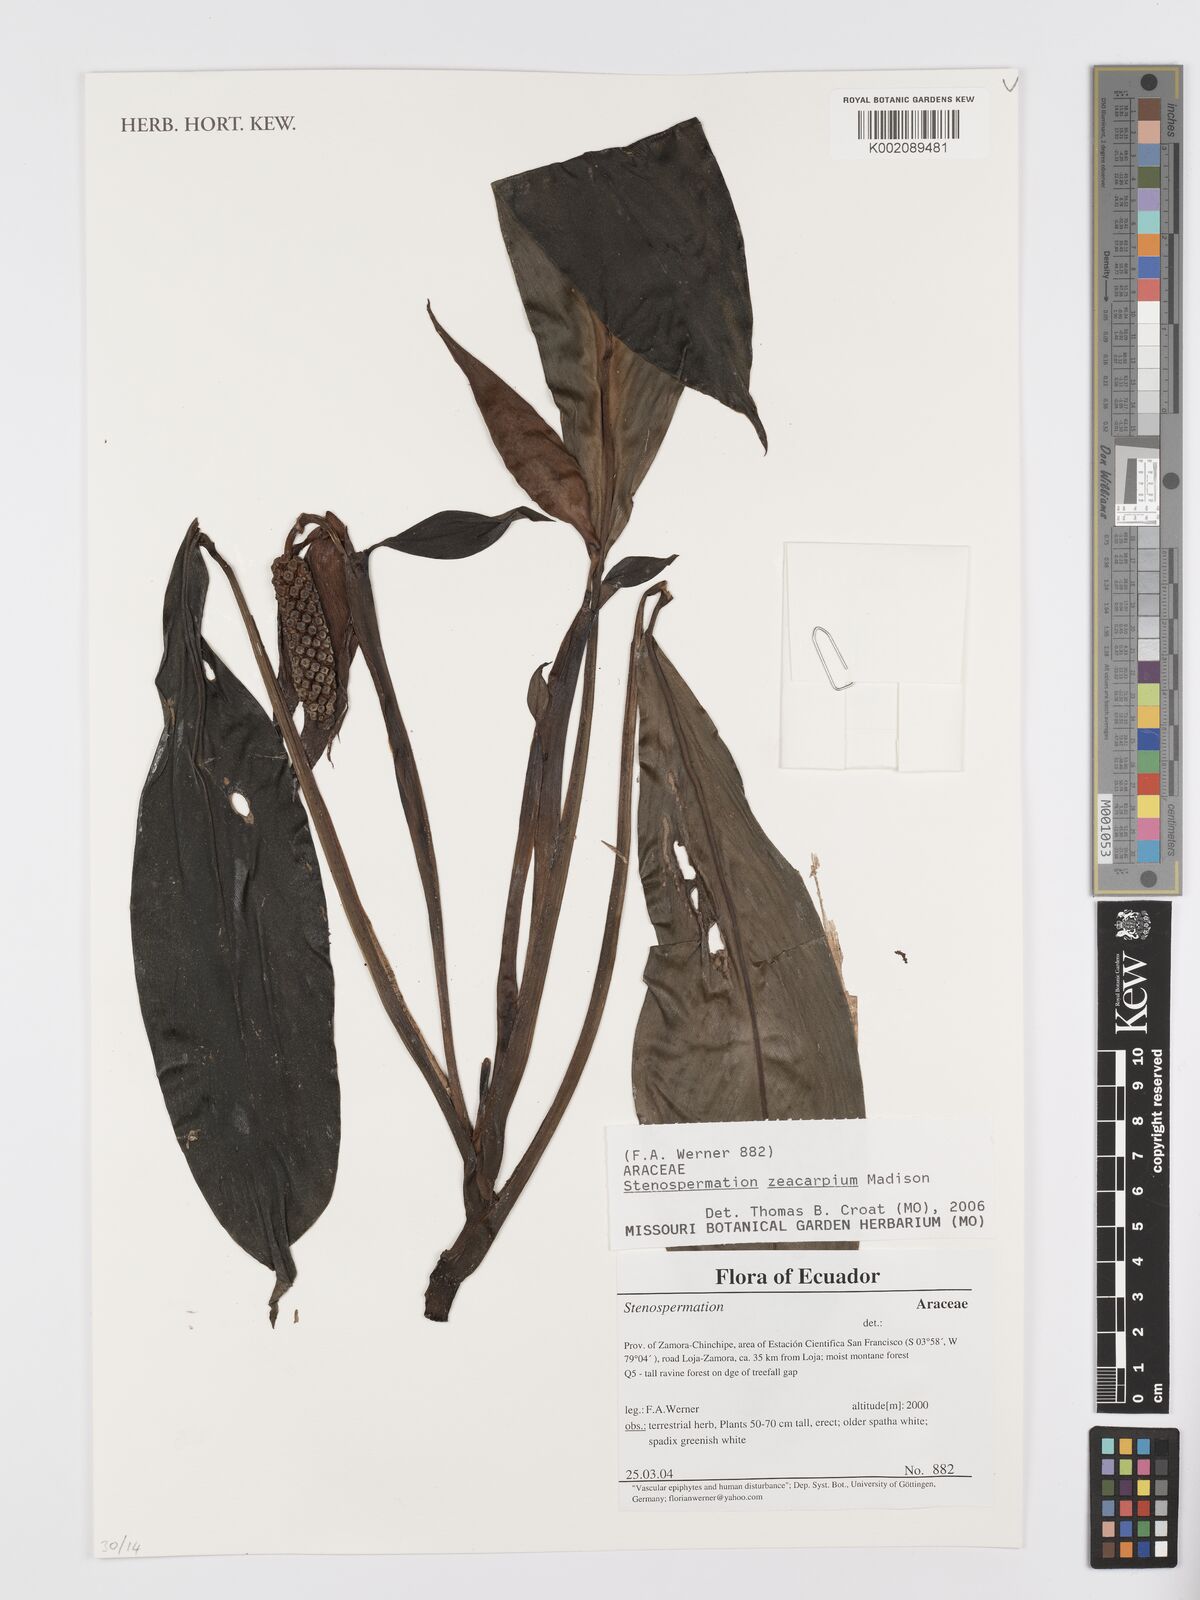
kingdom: Plantae
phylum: Tracheophyta
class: Liliopsida
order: Alismatales
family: Araceae
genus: Stenospermation
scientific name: Stenospermation zeacarpium
